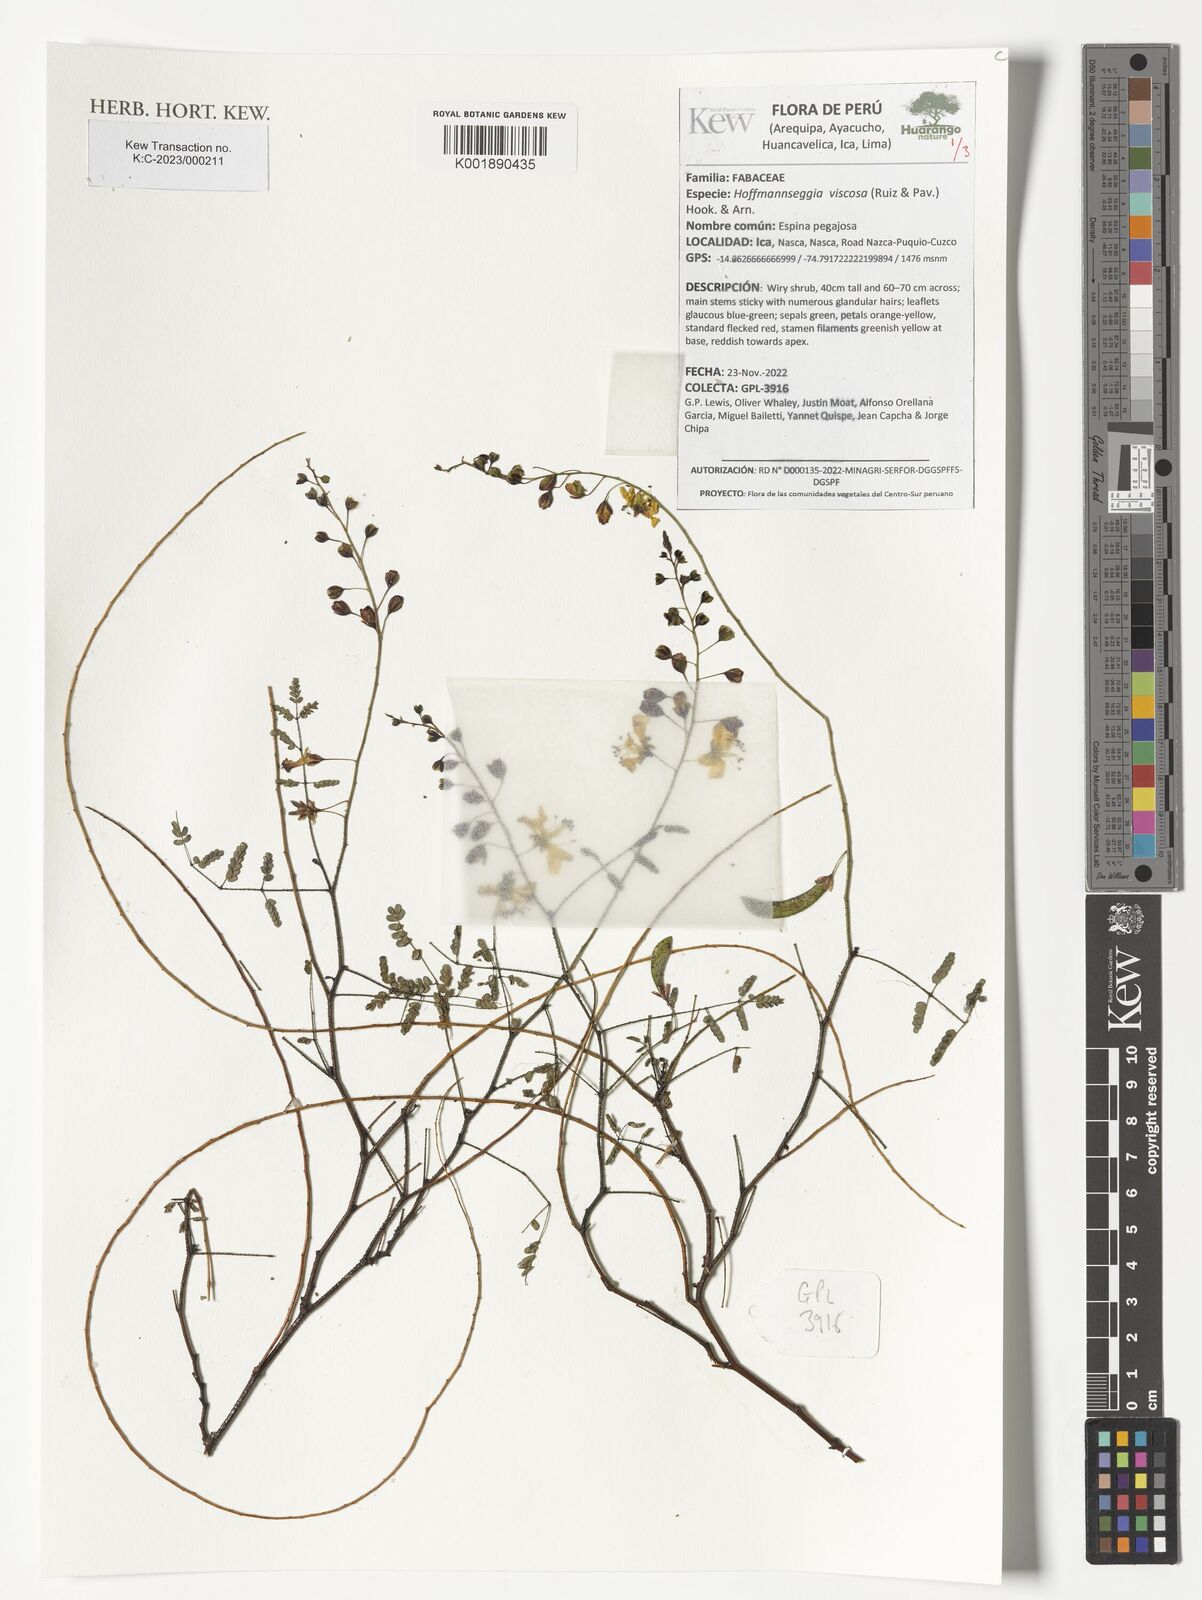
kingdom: Plantae
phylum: Tracheophyta
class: Magnoliopsida
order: Fabales
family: Fabaceae
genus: Hoffmannseggia
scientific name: Hoffmannseggia viscosa
